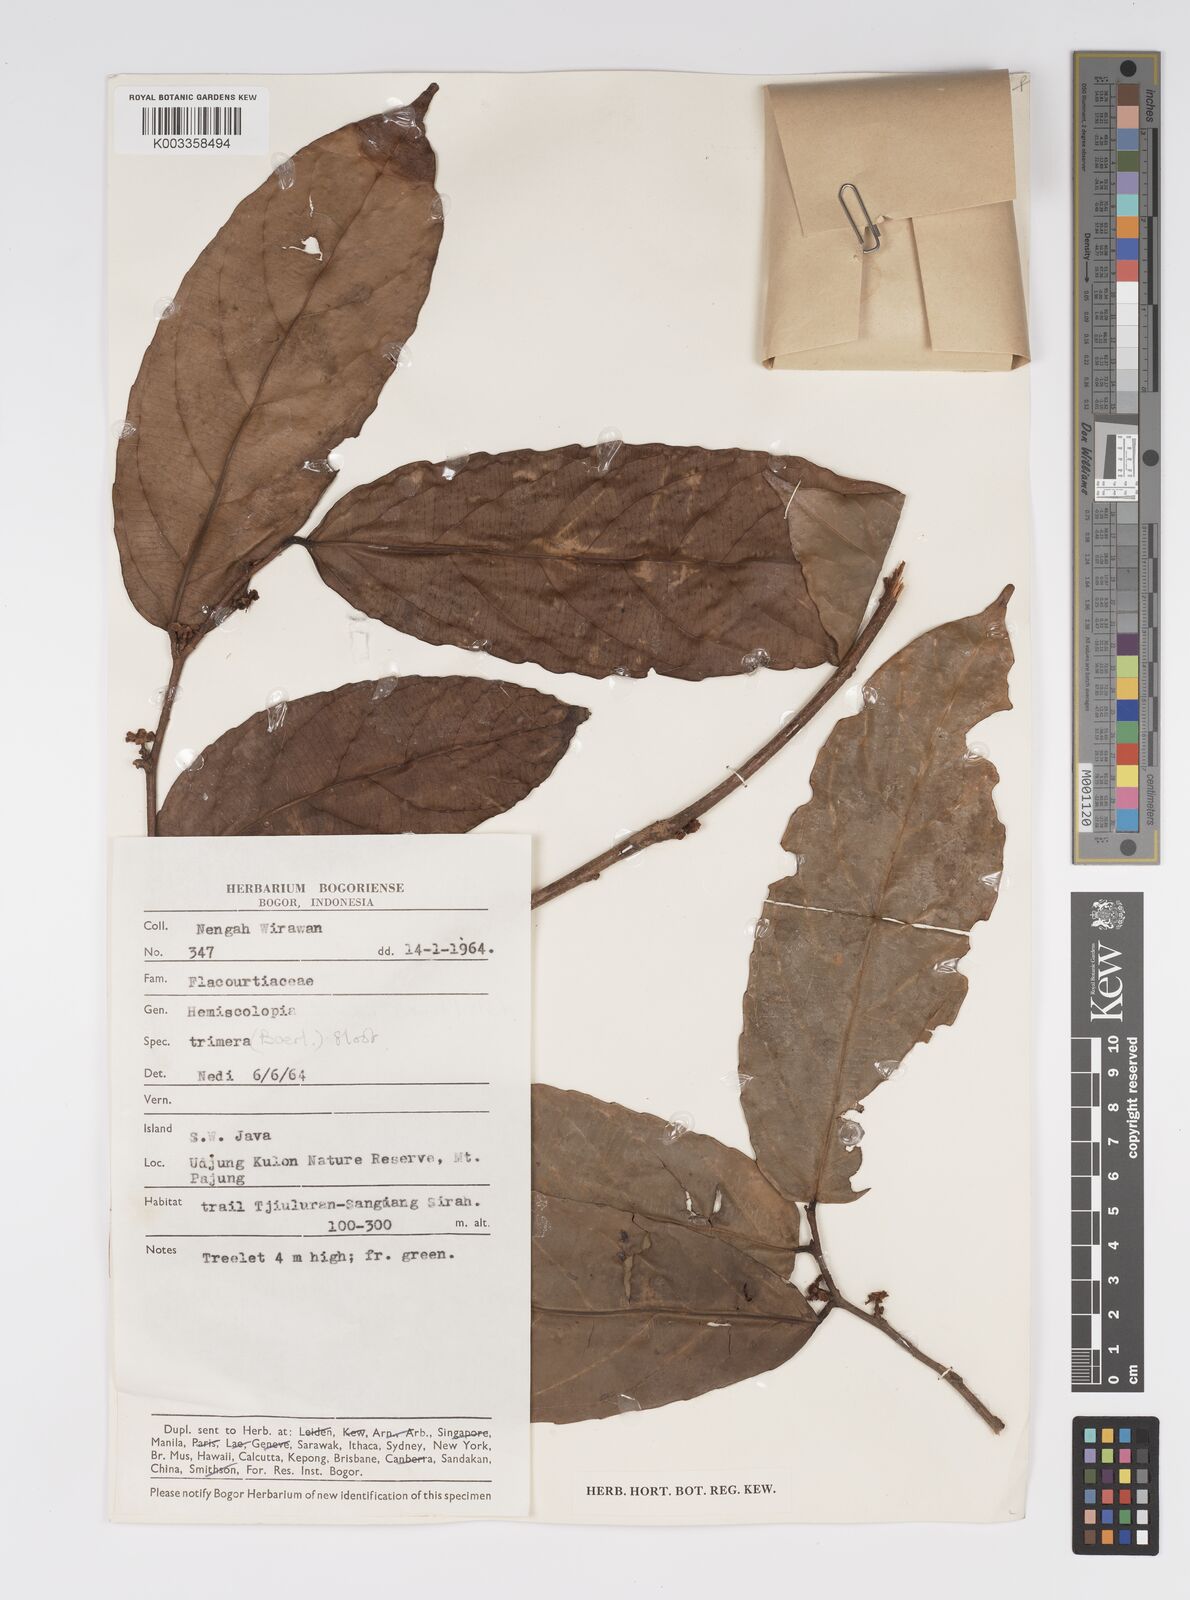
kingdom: Plantae
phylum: Tracheophyta
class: Magnoliopsida
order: Malpighiales
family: Salicaceae
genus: Hemiscolopia
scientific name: Hemiscolopia trimera
